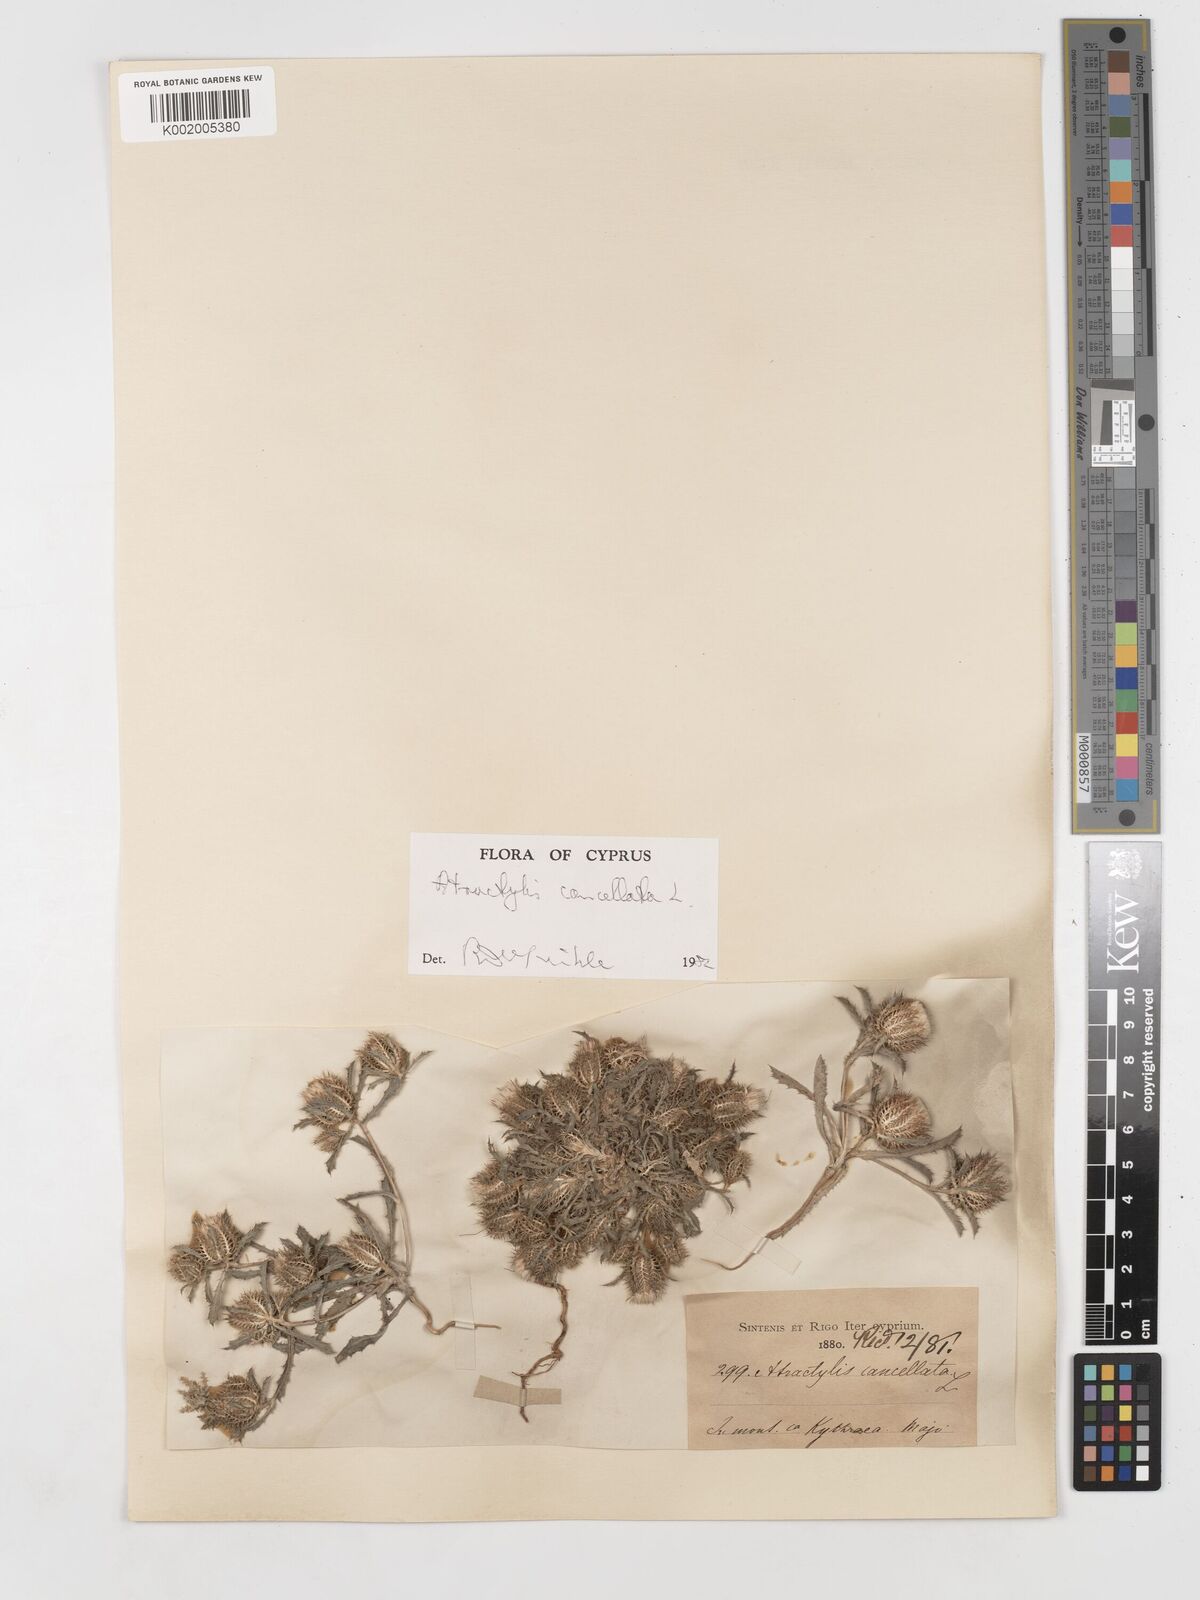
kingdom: Plantae
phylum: Tracheophyta
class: Magnoliopsida
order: Asterales
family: Asteraceae
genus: Atractylis
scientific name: Atractylis cancellata
